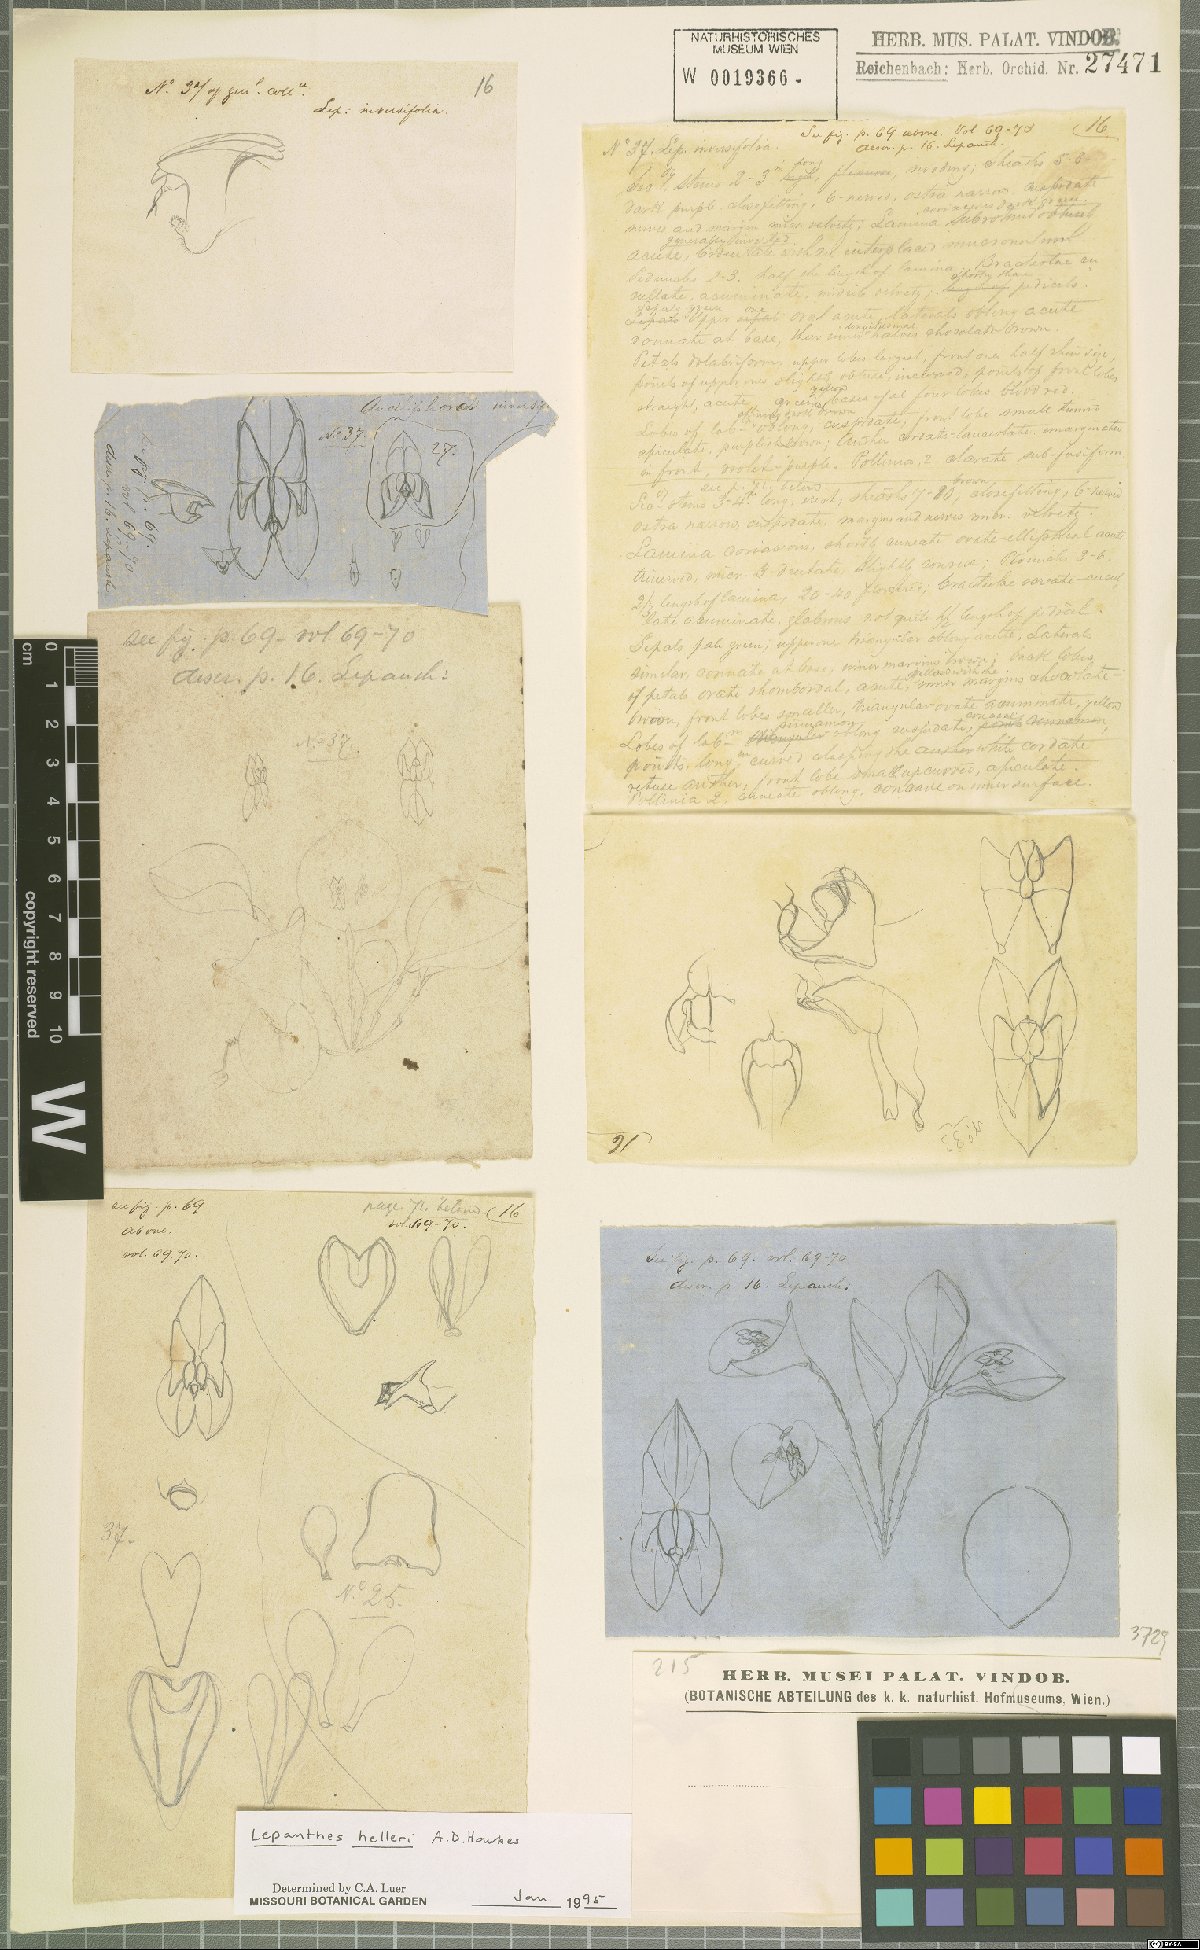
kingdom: Plantae
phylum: Tracheophyta
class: Liliopsida
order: Asparagales
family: Orchidaceae
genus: Lepanthes
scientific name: Lepanthes helleri
